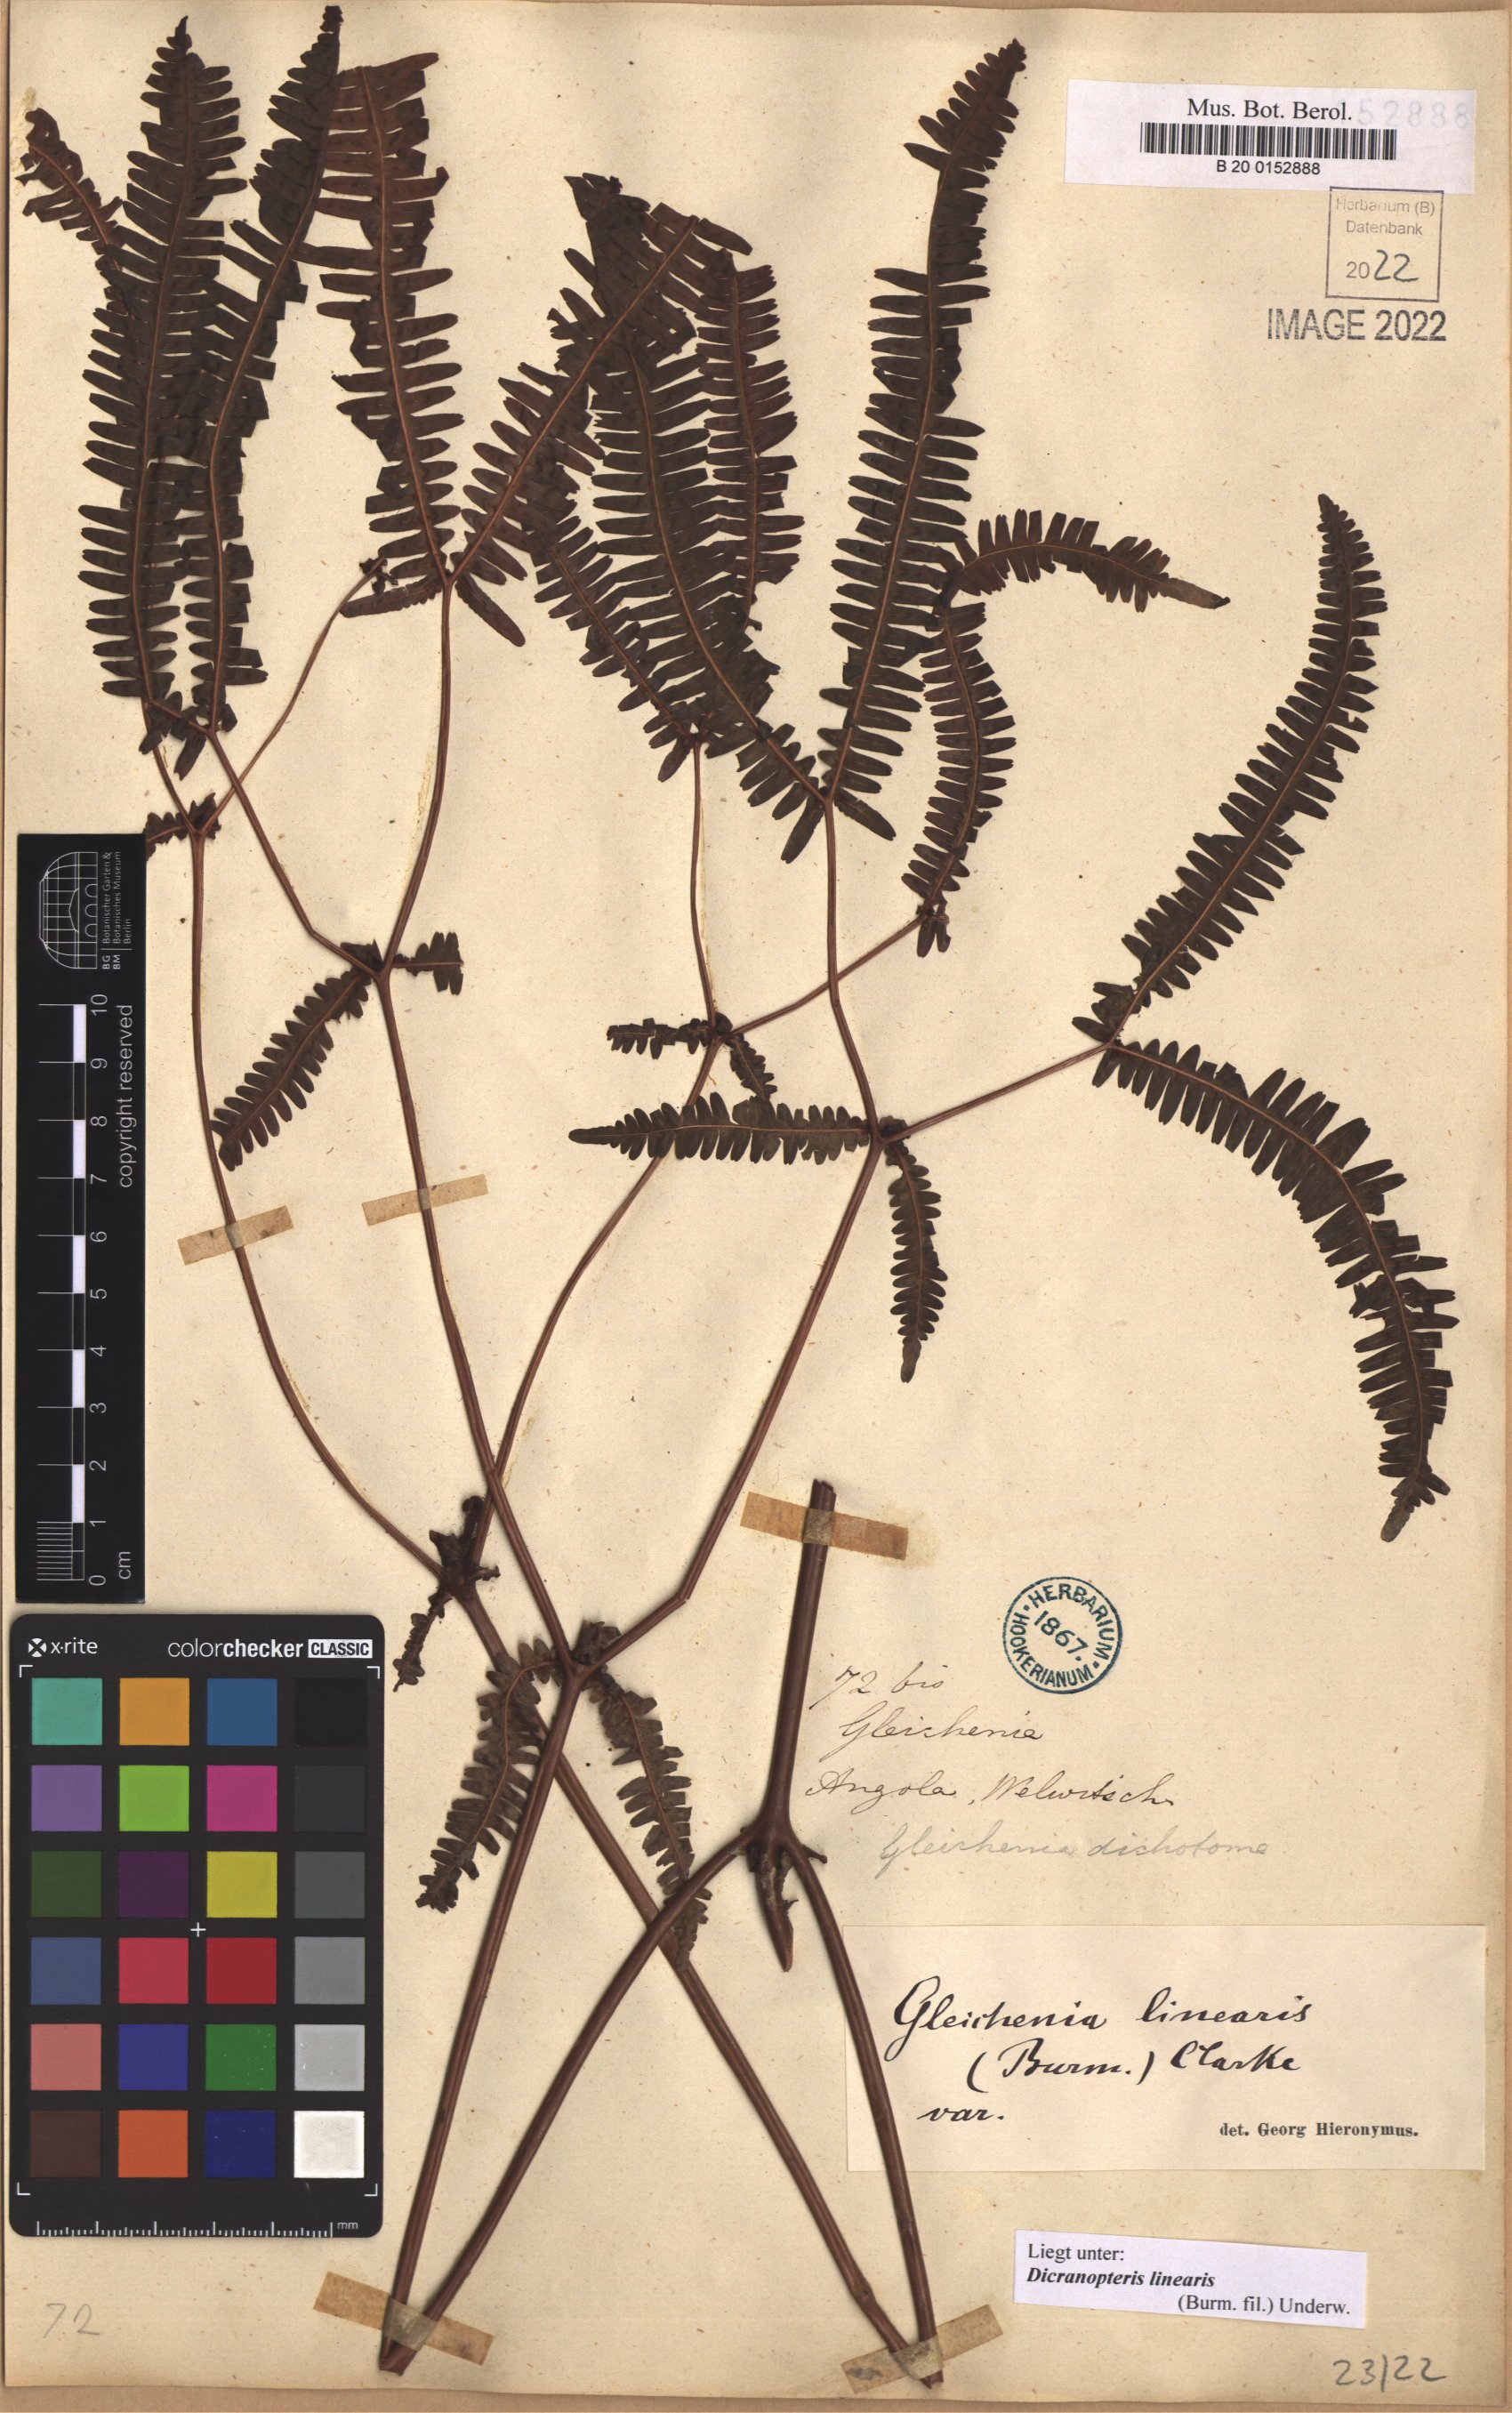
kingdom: Plantae
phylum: Tracheophyta
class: Polypodiopsida
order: Gleicheniales
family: Gleicheniaceae
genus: Dicranopteris
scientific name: Dicranopteris linearis
